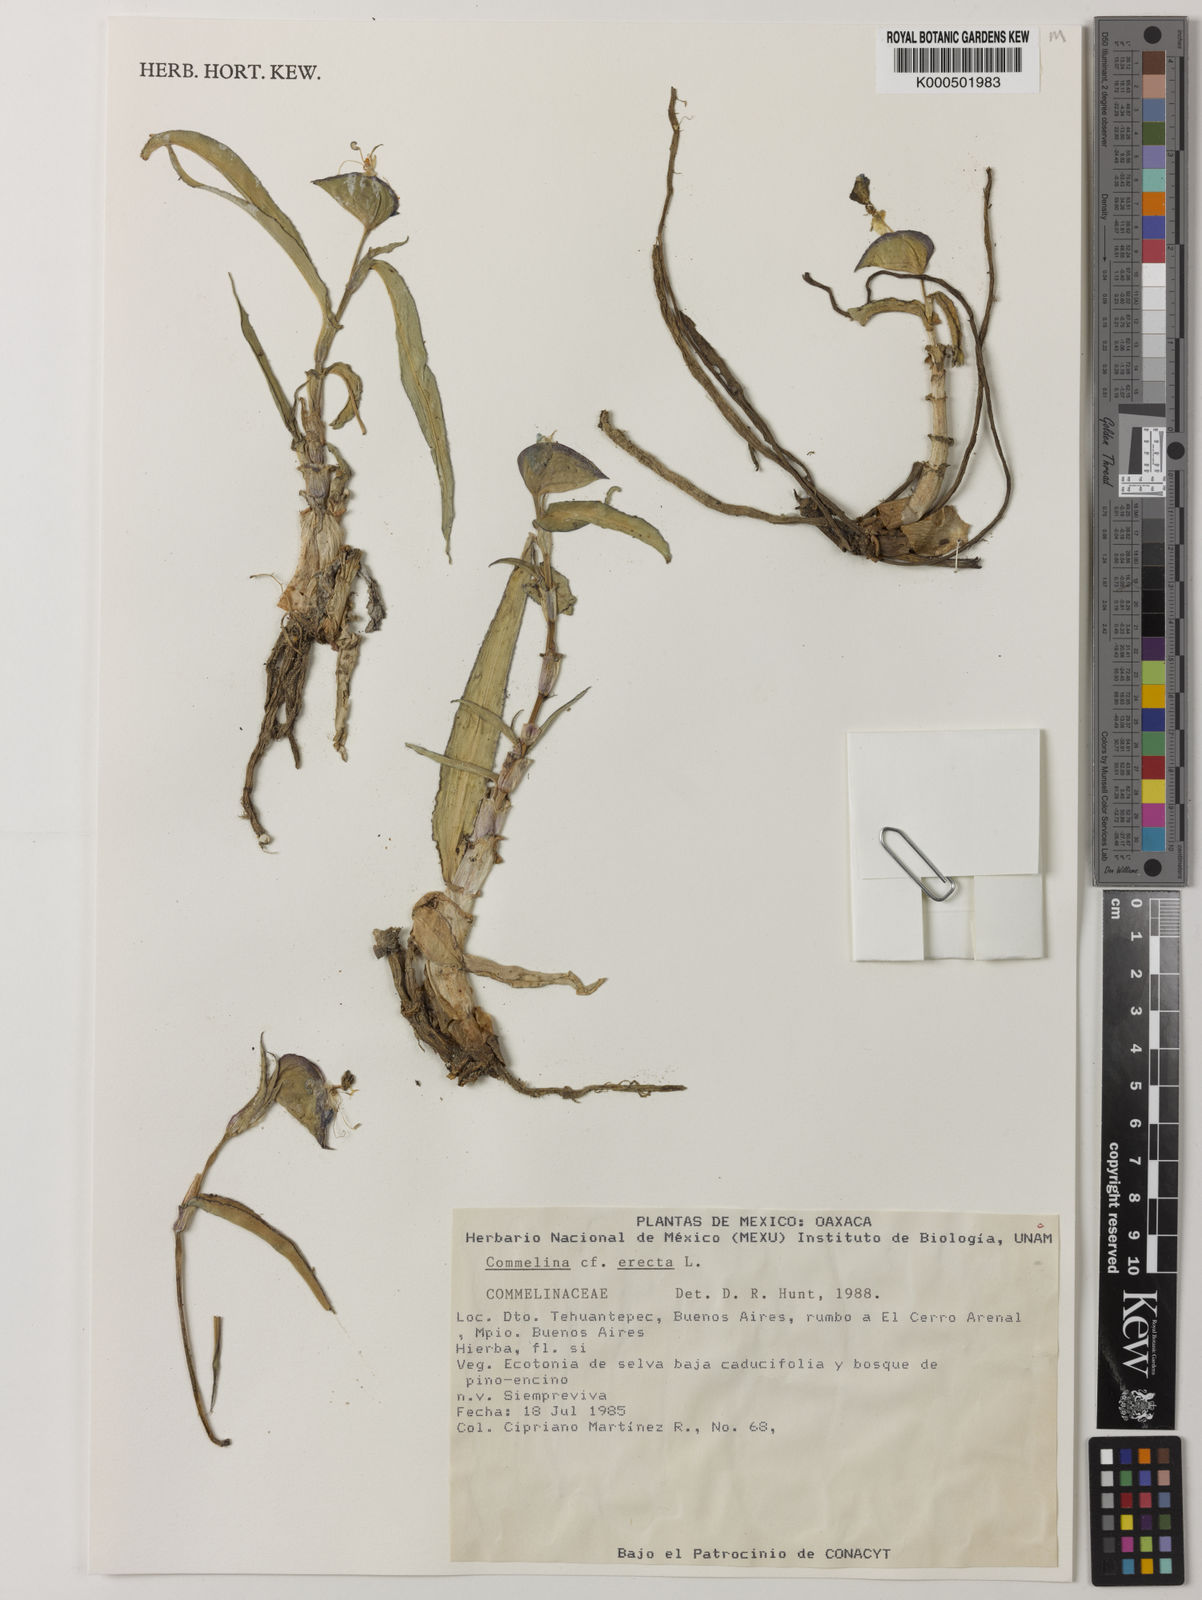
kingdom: Plantae
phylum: Tracheophyta
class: Liliopsida
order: Commelinales
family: Commelinaceae
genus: Commelina
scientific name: Commelina erecta
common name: Blousel blommetjie
